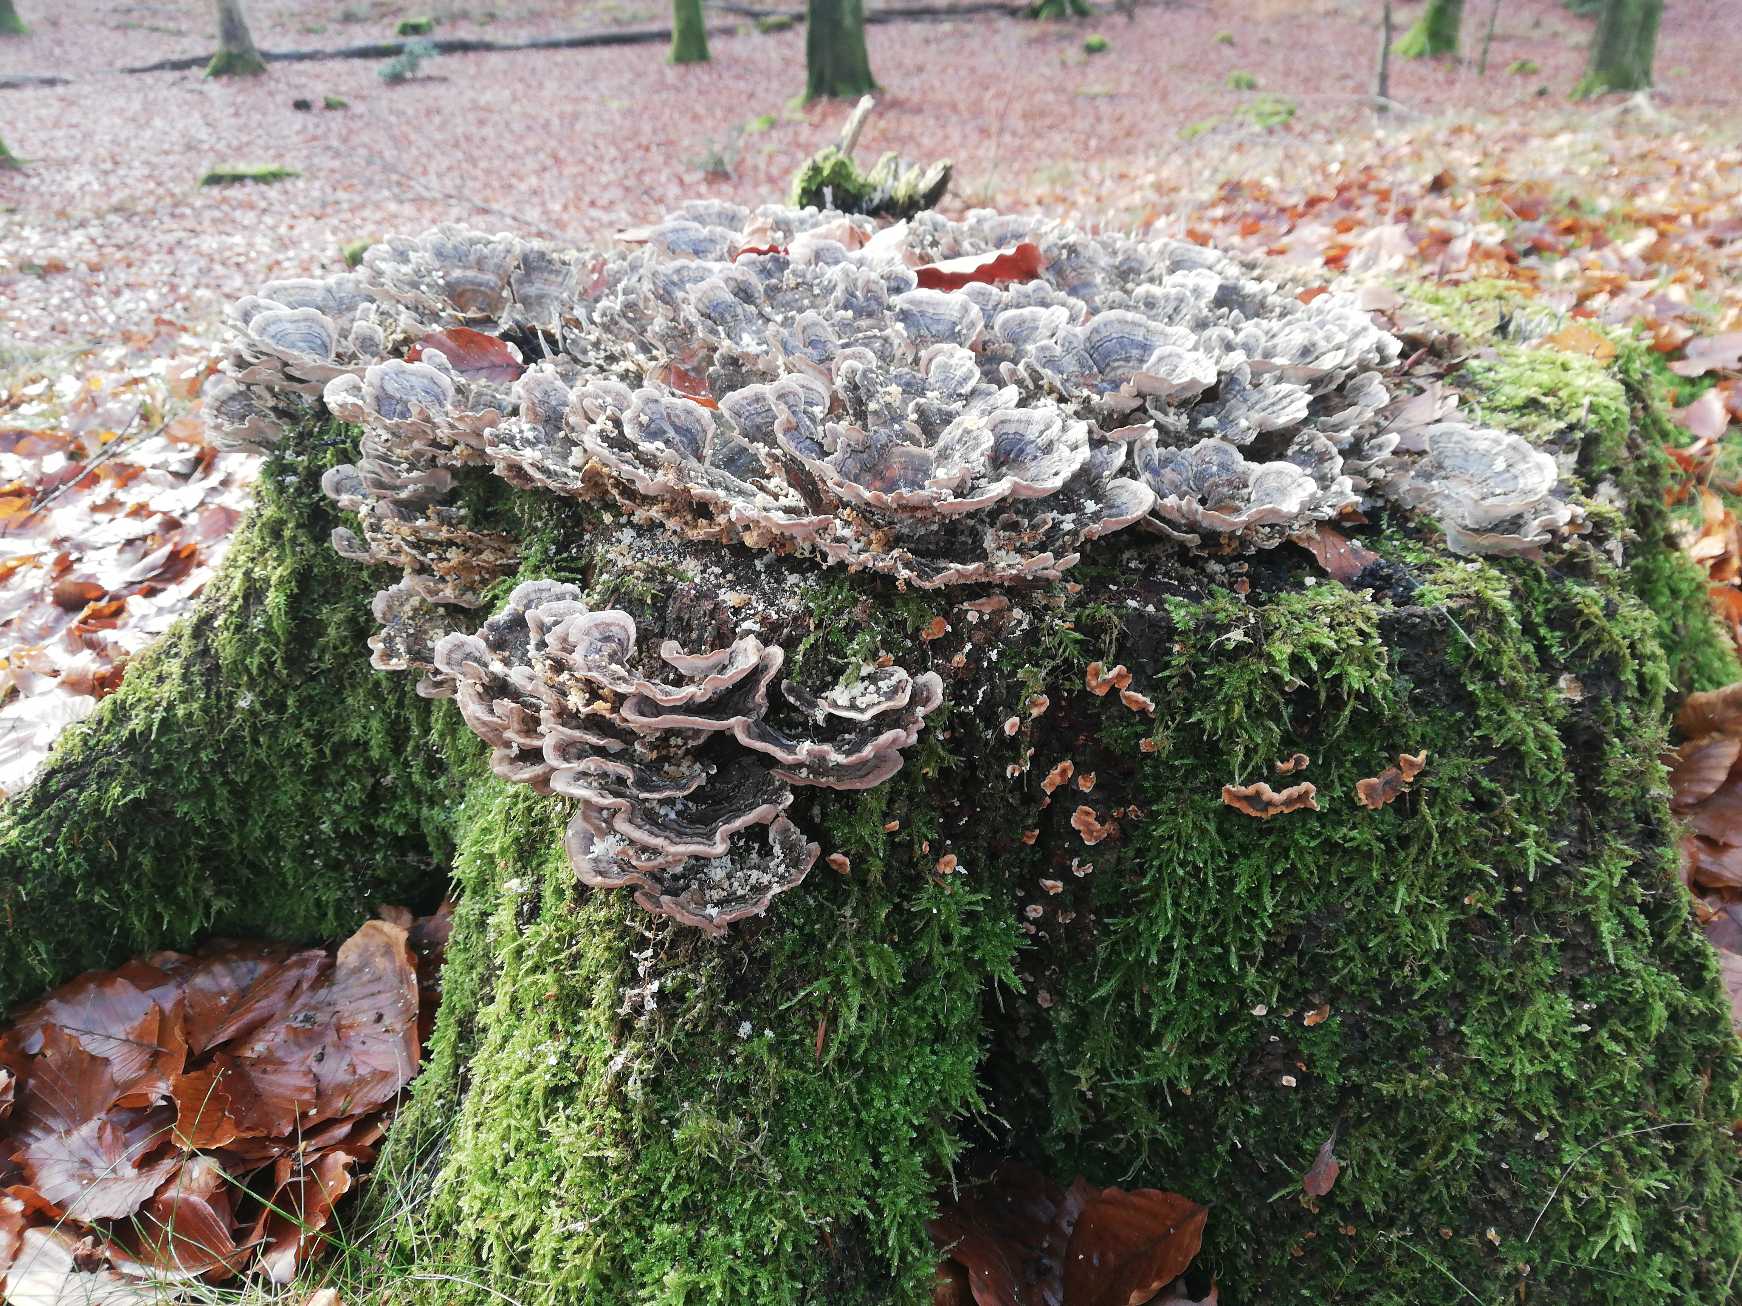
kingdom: Fungi
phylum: Basidiomycota
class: Agaricomycetes
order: Polyporales
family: Polyporaceae
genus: Trametes
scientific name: Trametes versicolor
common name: Broget læderporesvamp
